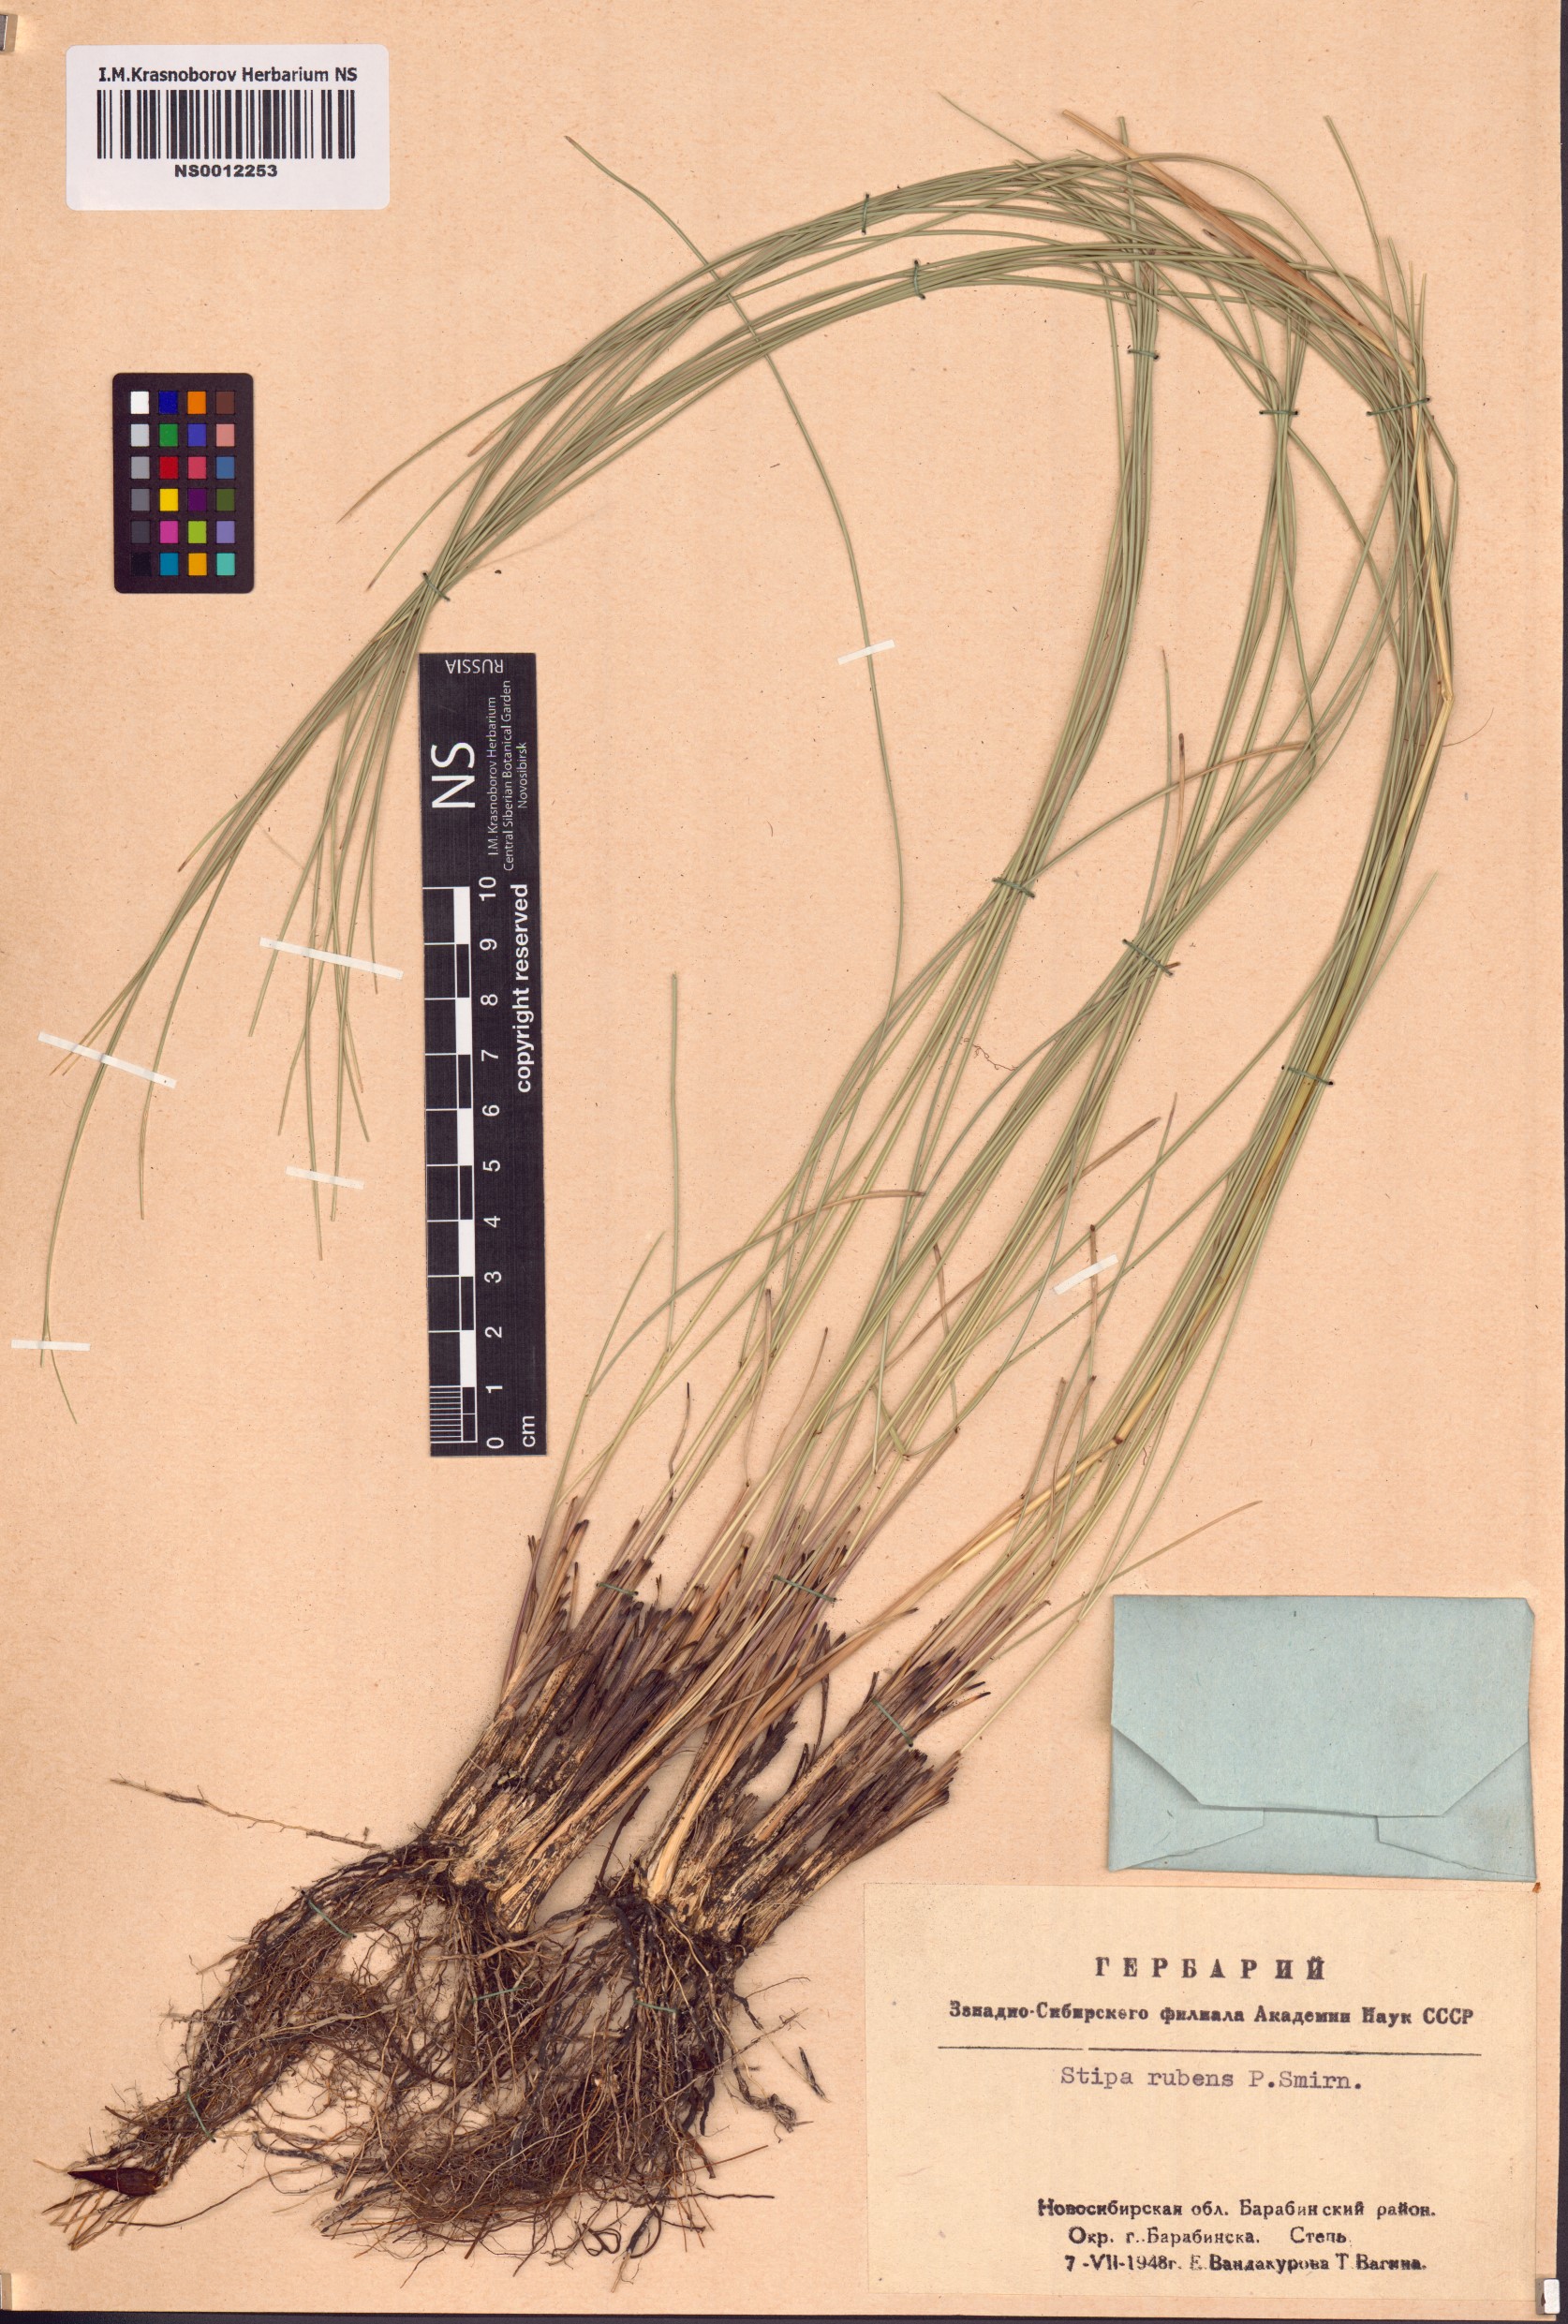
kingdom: Plantae
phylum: Tracheophyta
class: Liliopsida
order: Poales
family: Poaceae
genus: Stipa
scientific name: Stipa zalesskyi
